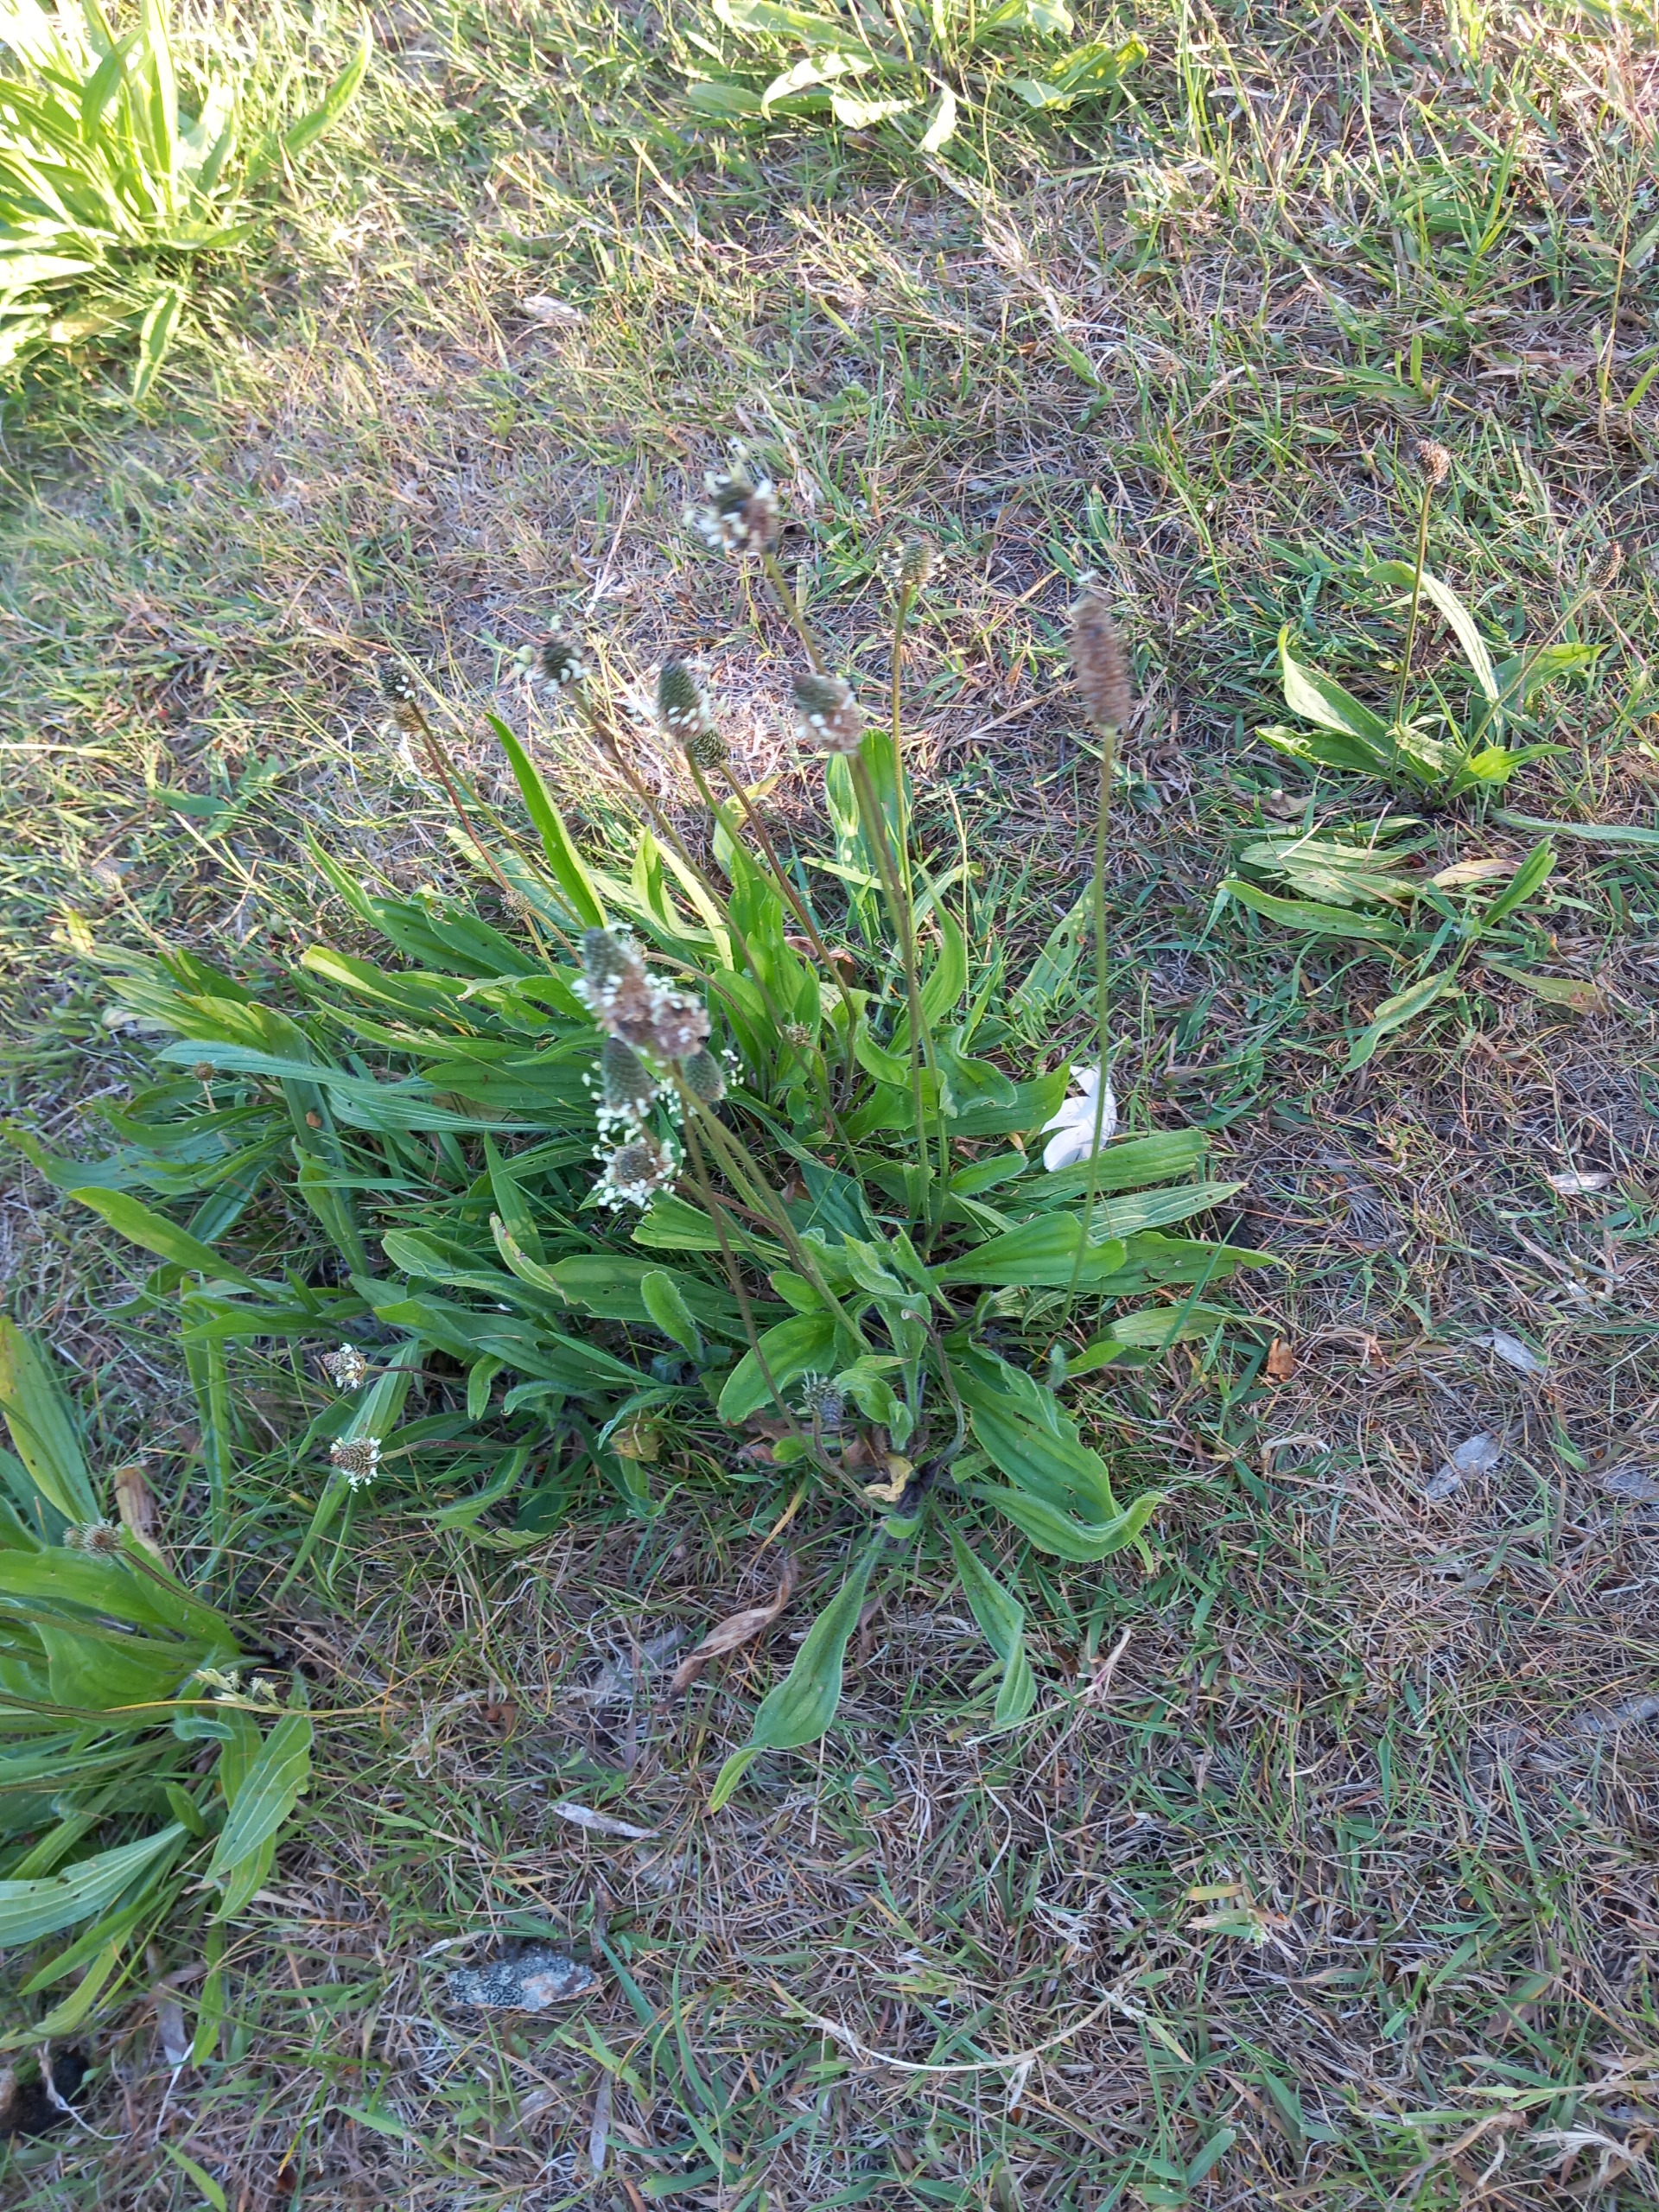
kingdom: Plantae
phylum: Tracheophyta
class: Magnoliopsida
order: Lamiales
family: Plantaginaceae
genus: Plantago
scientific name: Plantago lanceolata
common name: Lancet-vejbred
